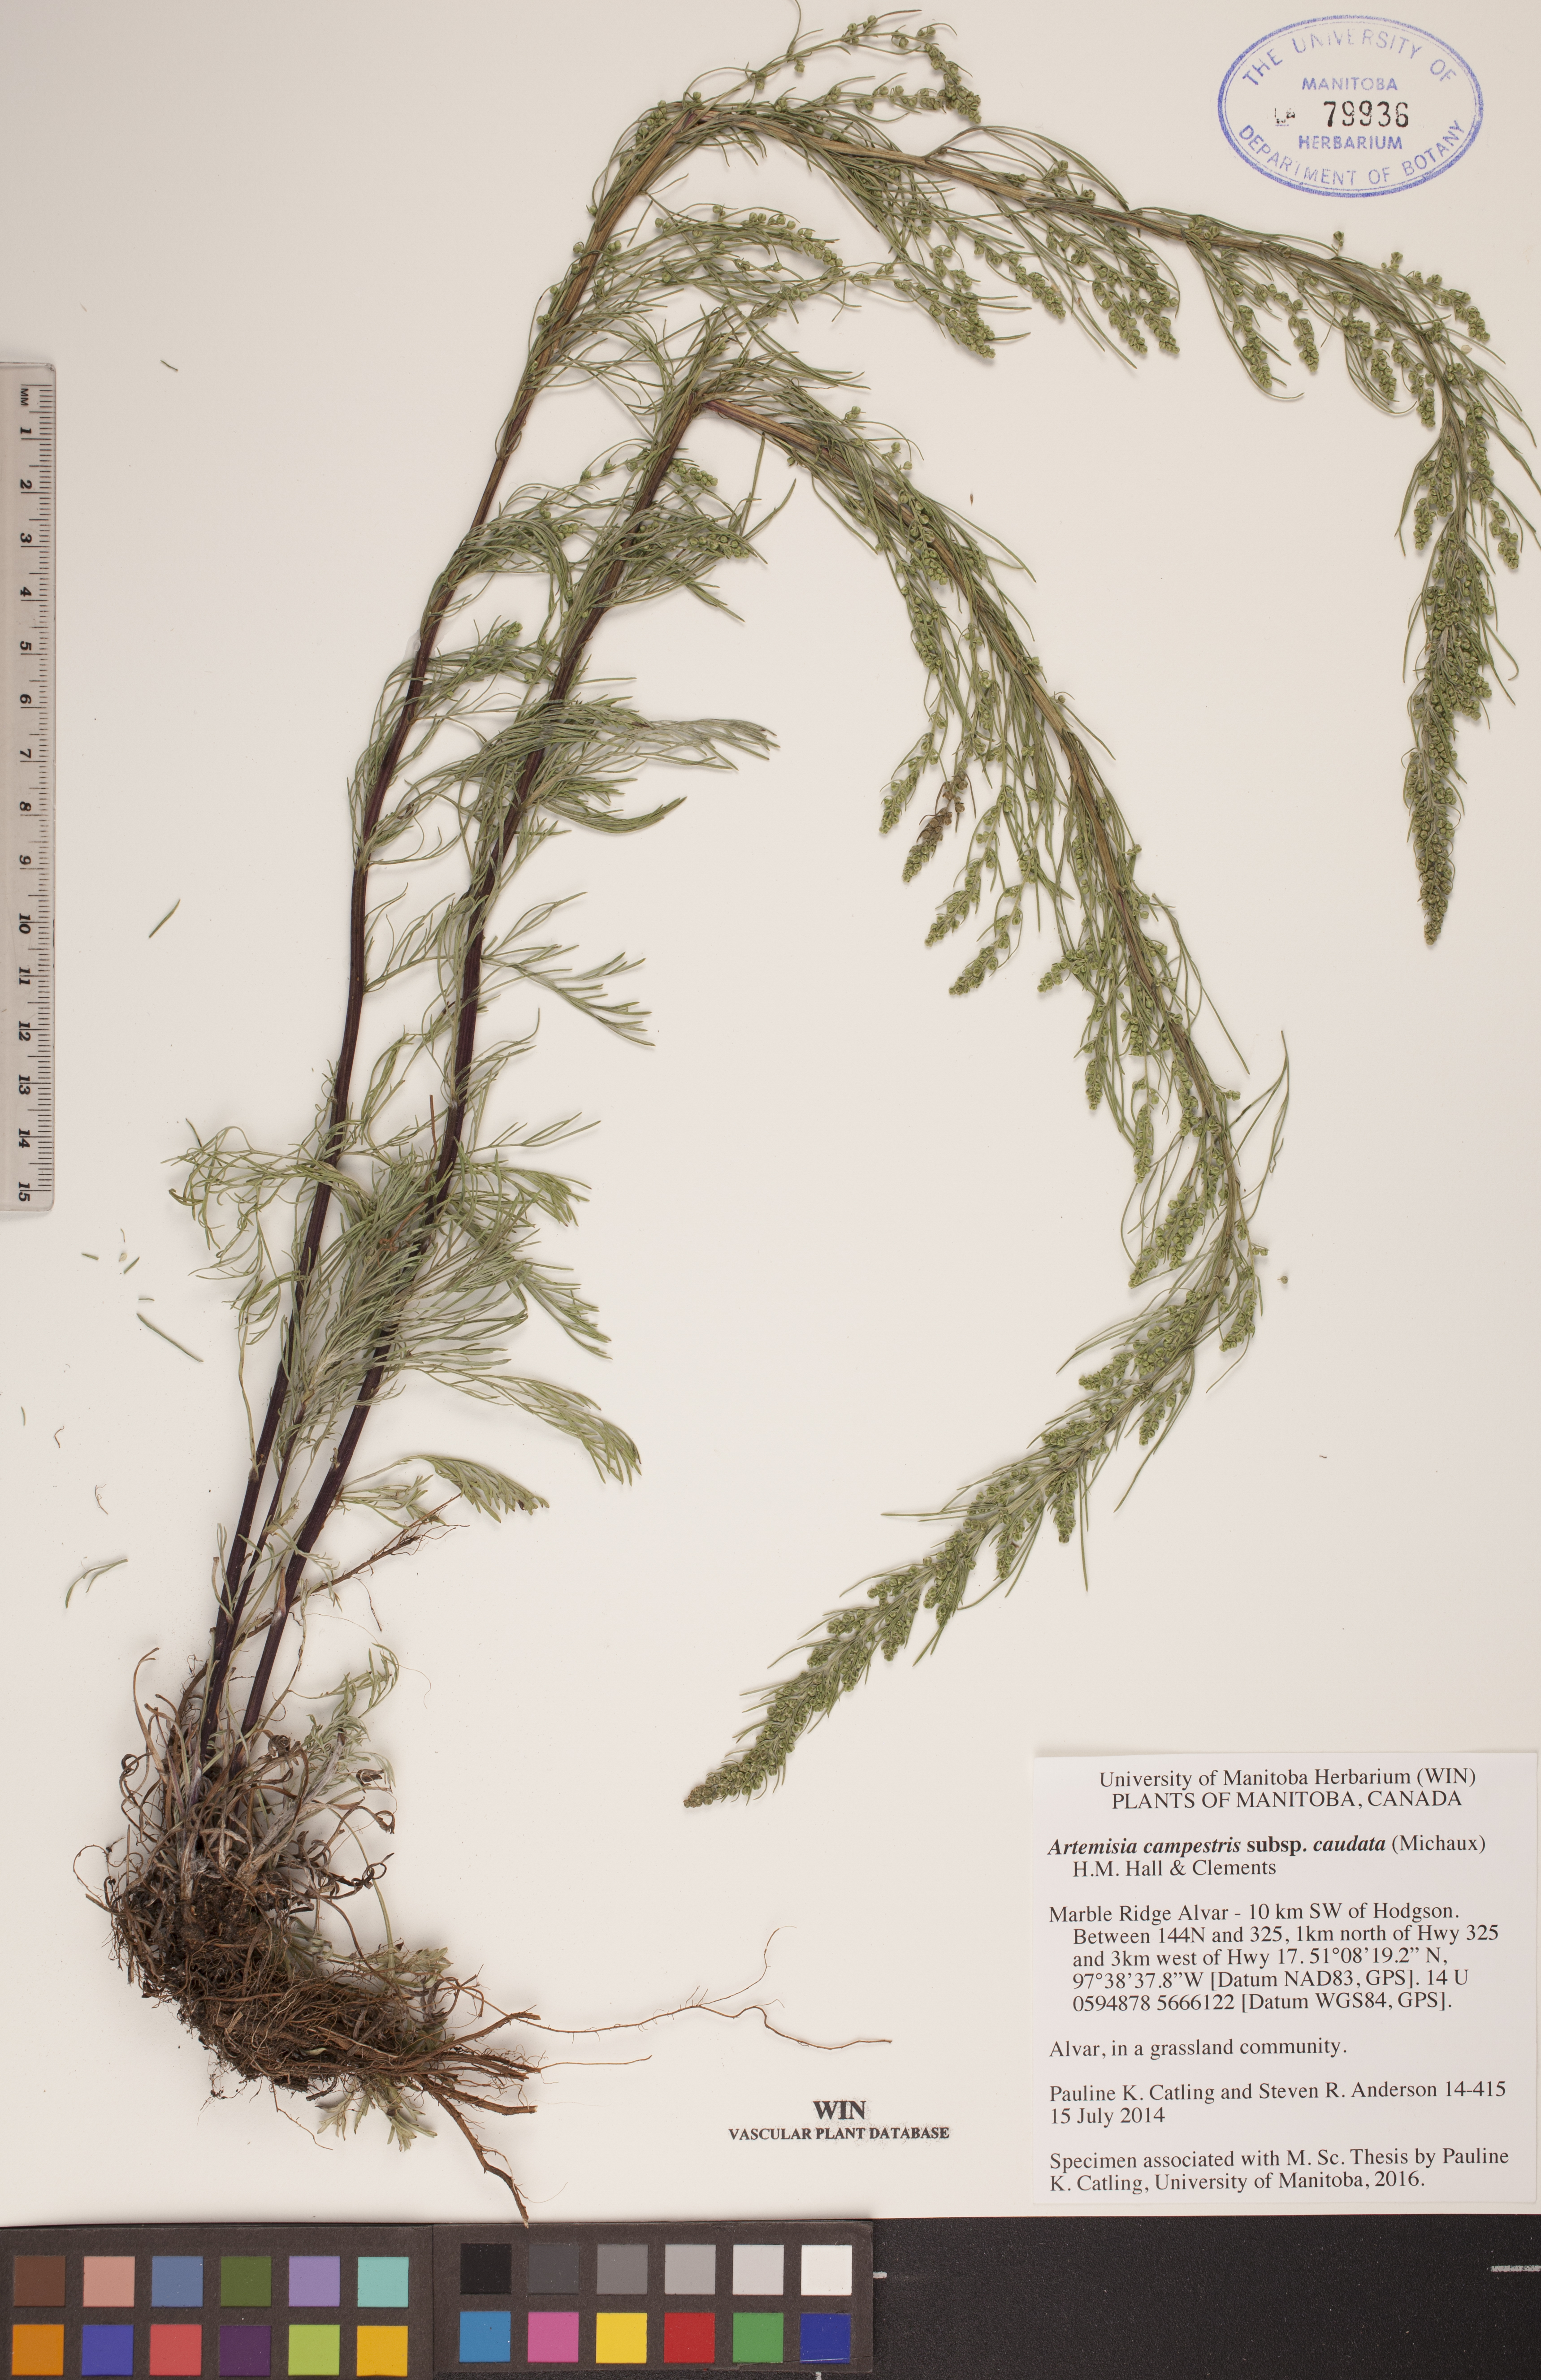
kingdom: Plantae
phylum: Tracheophyta
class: Magnoliopsida
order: Asterales
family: Asteraceae
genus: Artemisia
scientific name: Artemisia campestris
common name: Field wormwood
